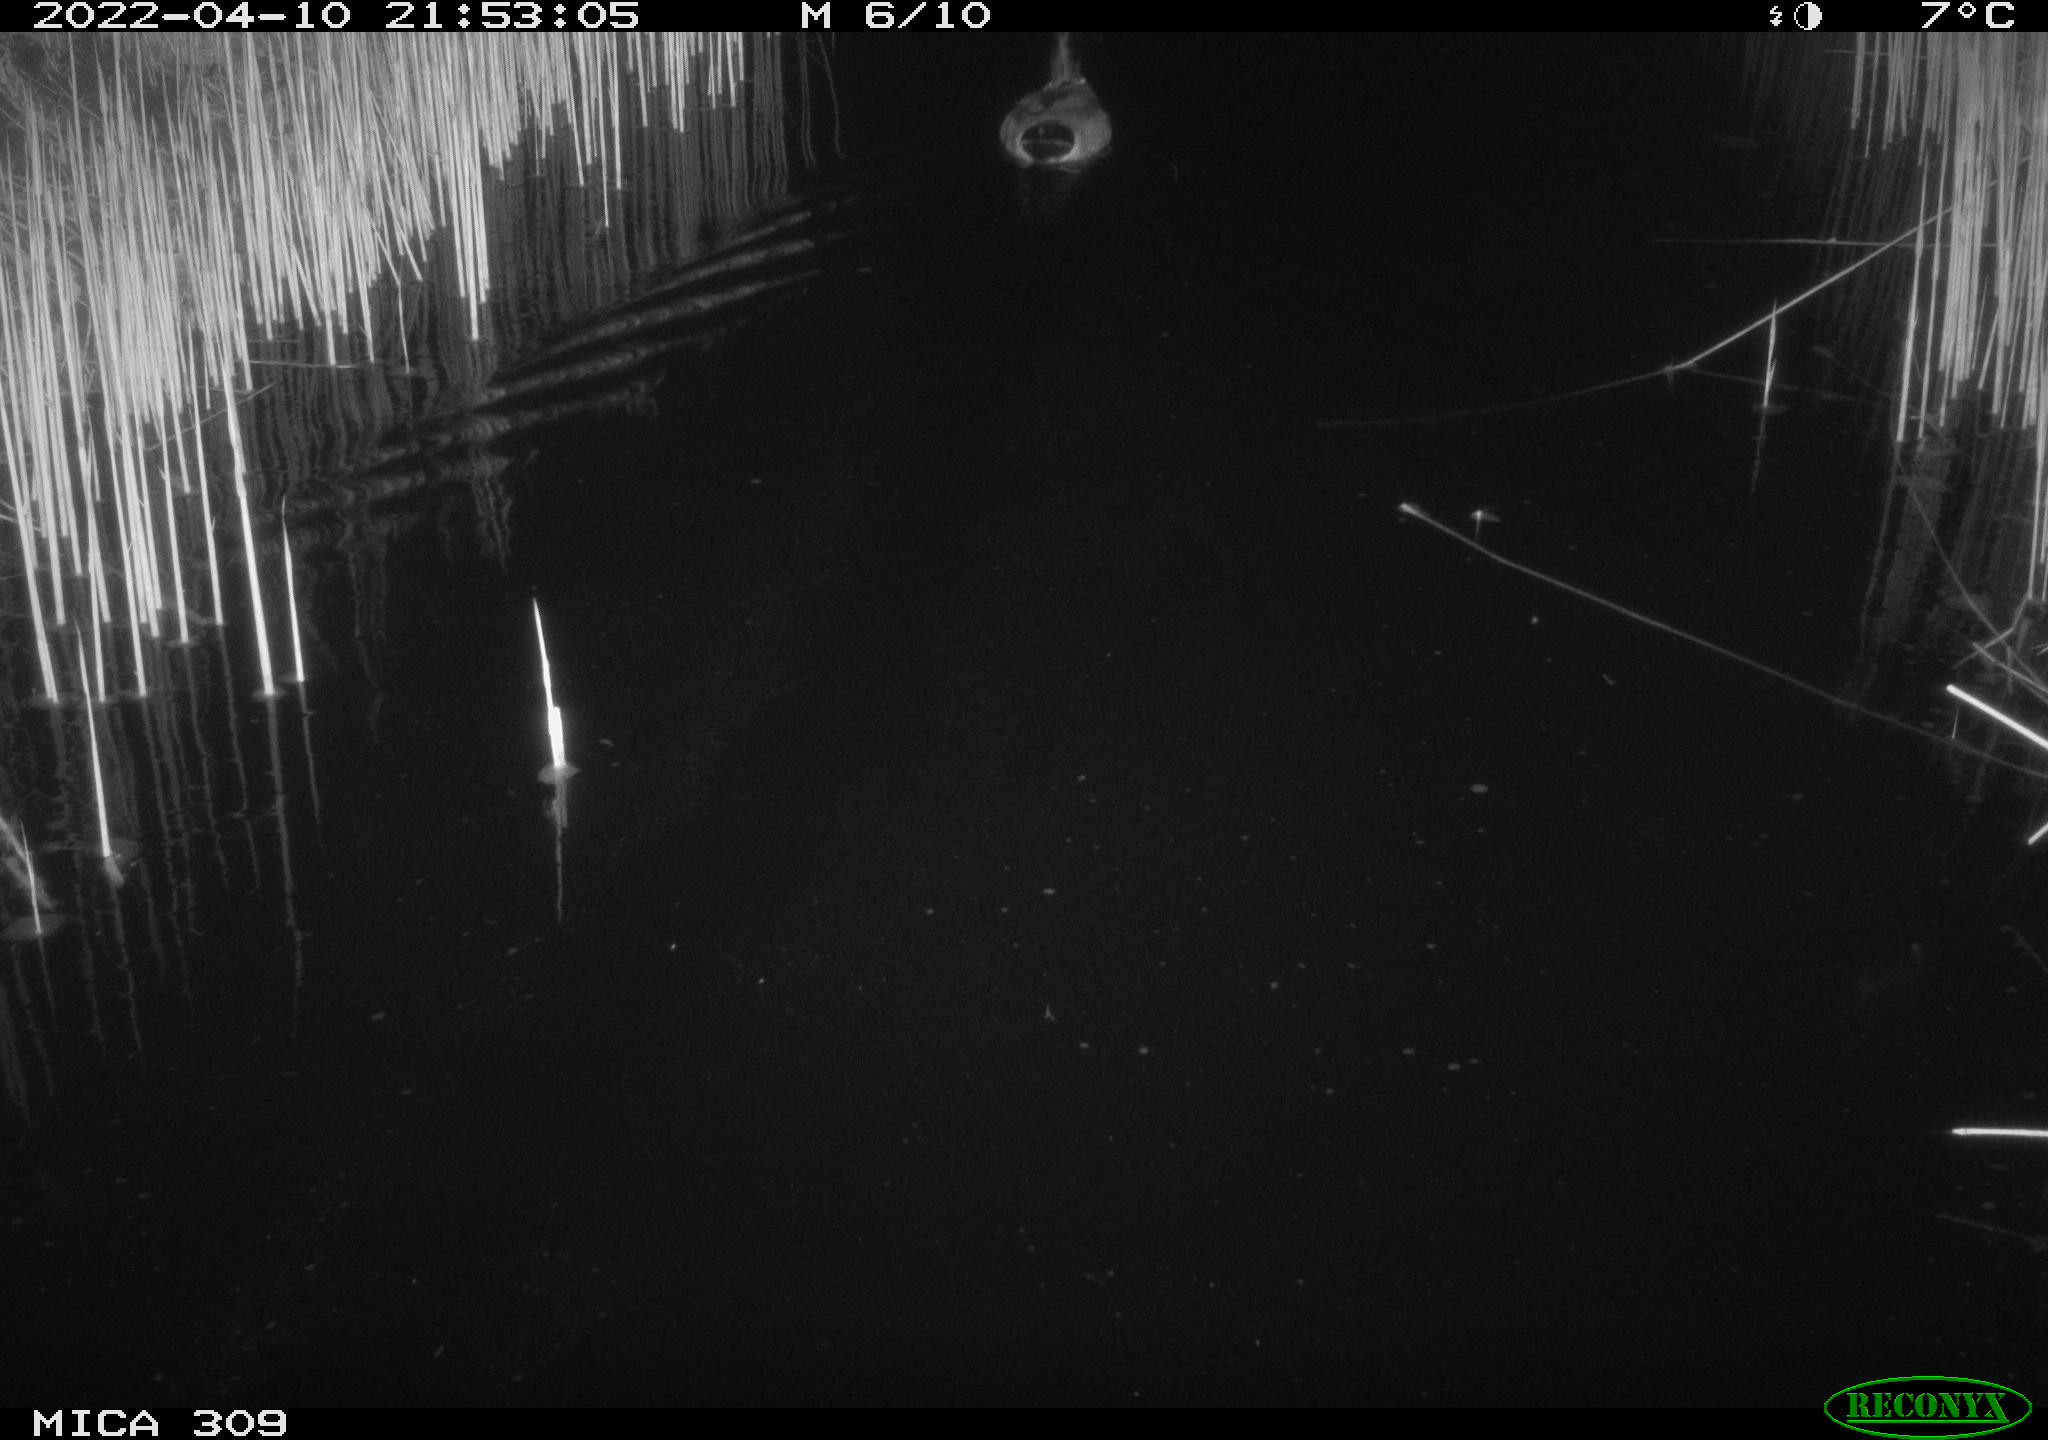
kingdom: Animalia
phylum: Chordata
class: Aves
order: Anseriformes
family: Anatidae
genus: Anas
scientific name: Anas platyrhynchos
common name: Mallard
